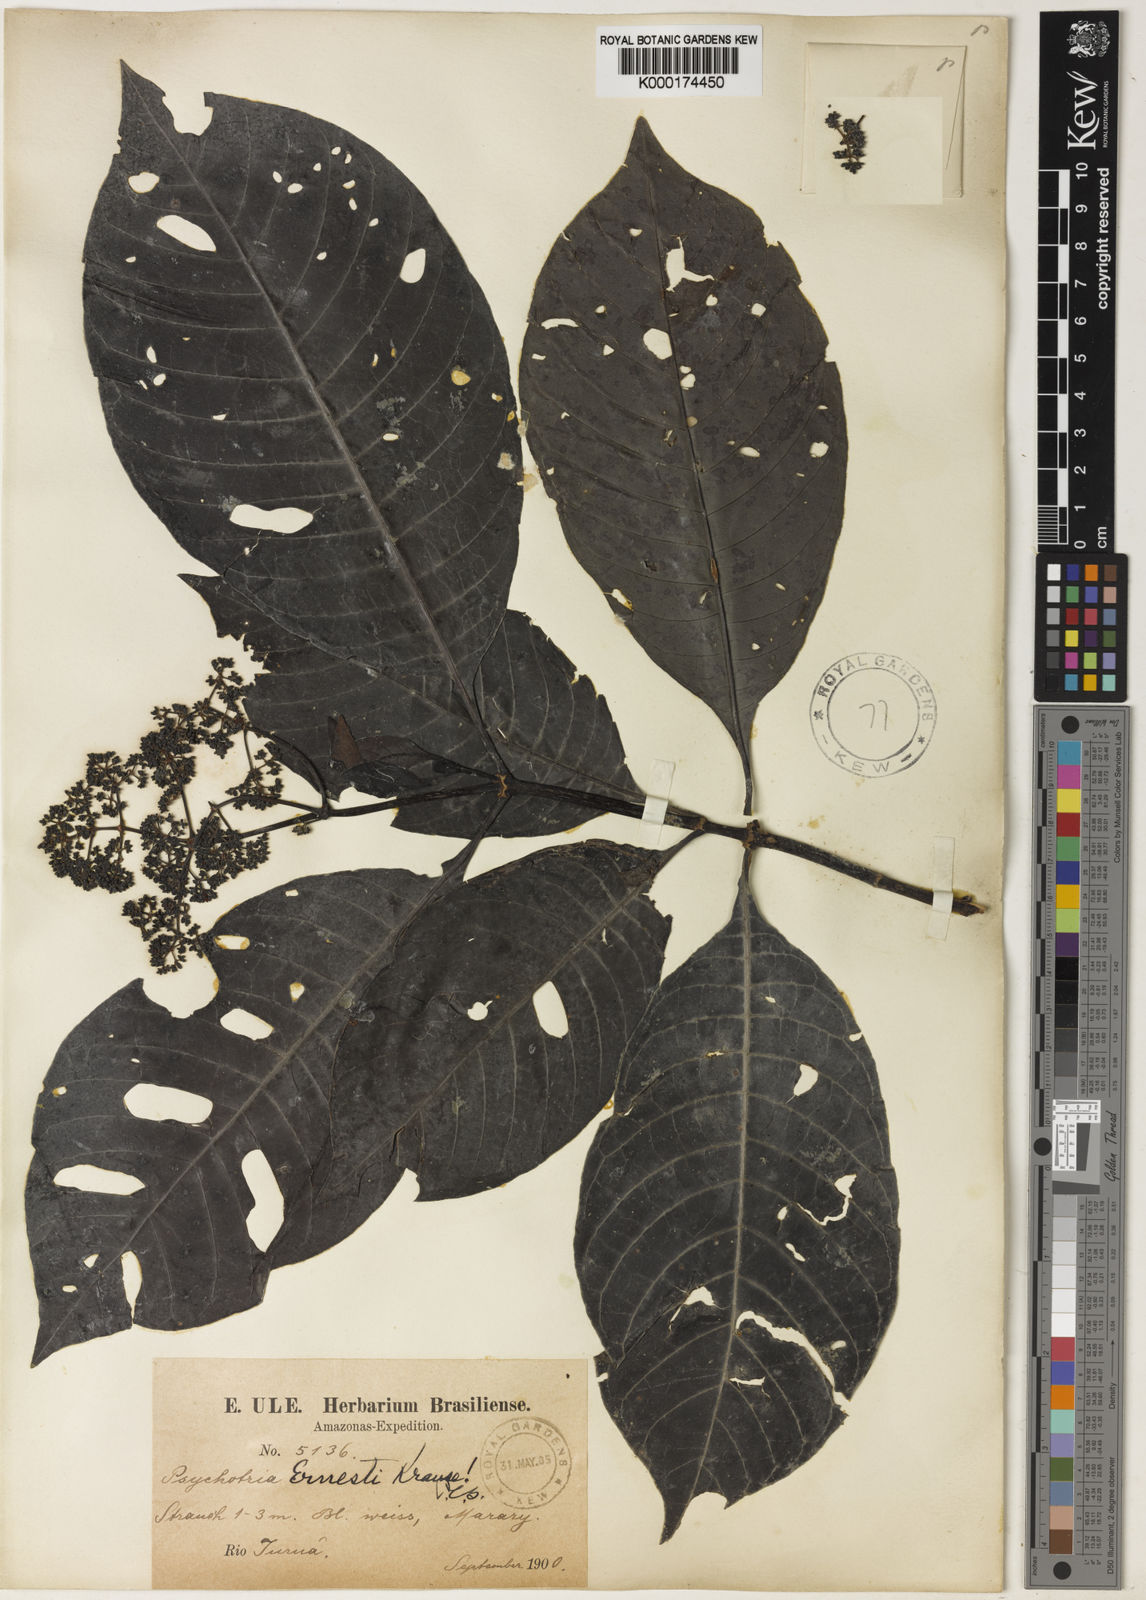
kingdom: Plantae
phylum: Tracheophyta
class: Magnoliopsida
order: Gentianales
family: Rubiaceae
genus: Psychotria
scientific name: Psychotria guianensis
